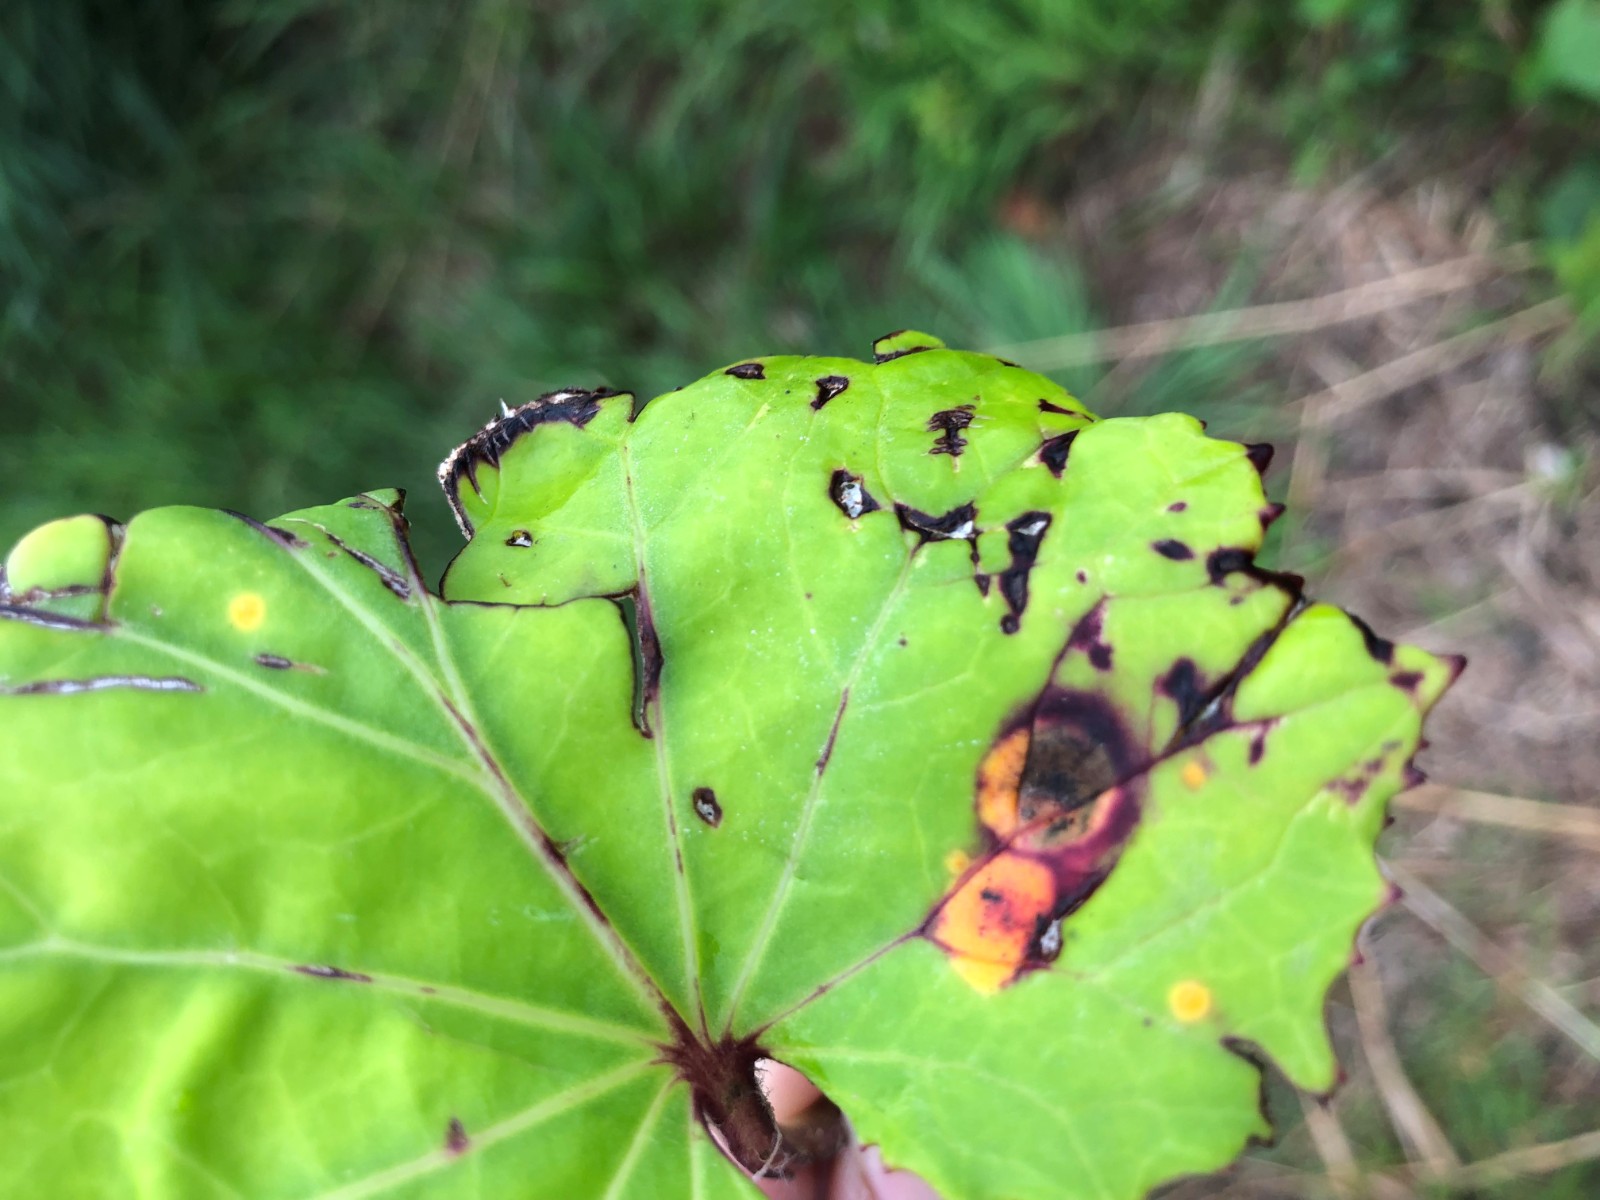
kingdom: Fungi
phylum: Basidiomycota
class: Pucciniomycetes
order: Pucciniales
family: Pucciniaceae
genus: Puccinia
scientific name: Puccinia poarum
